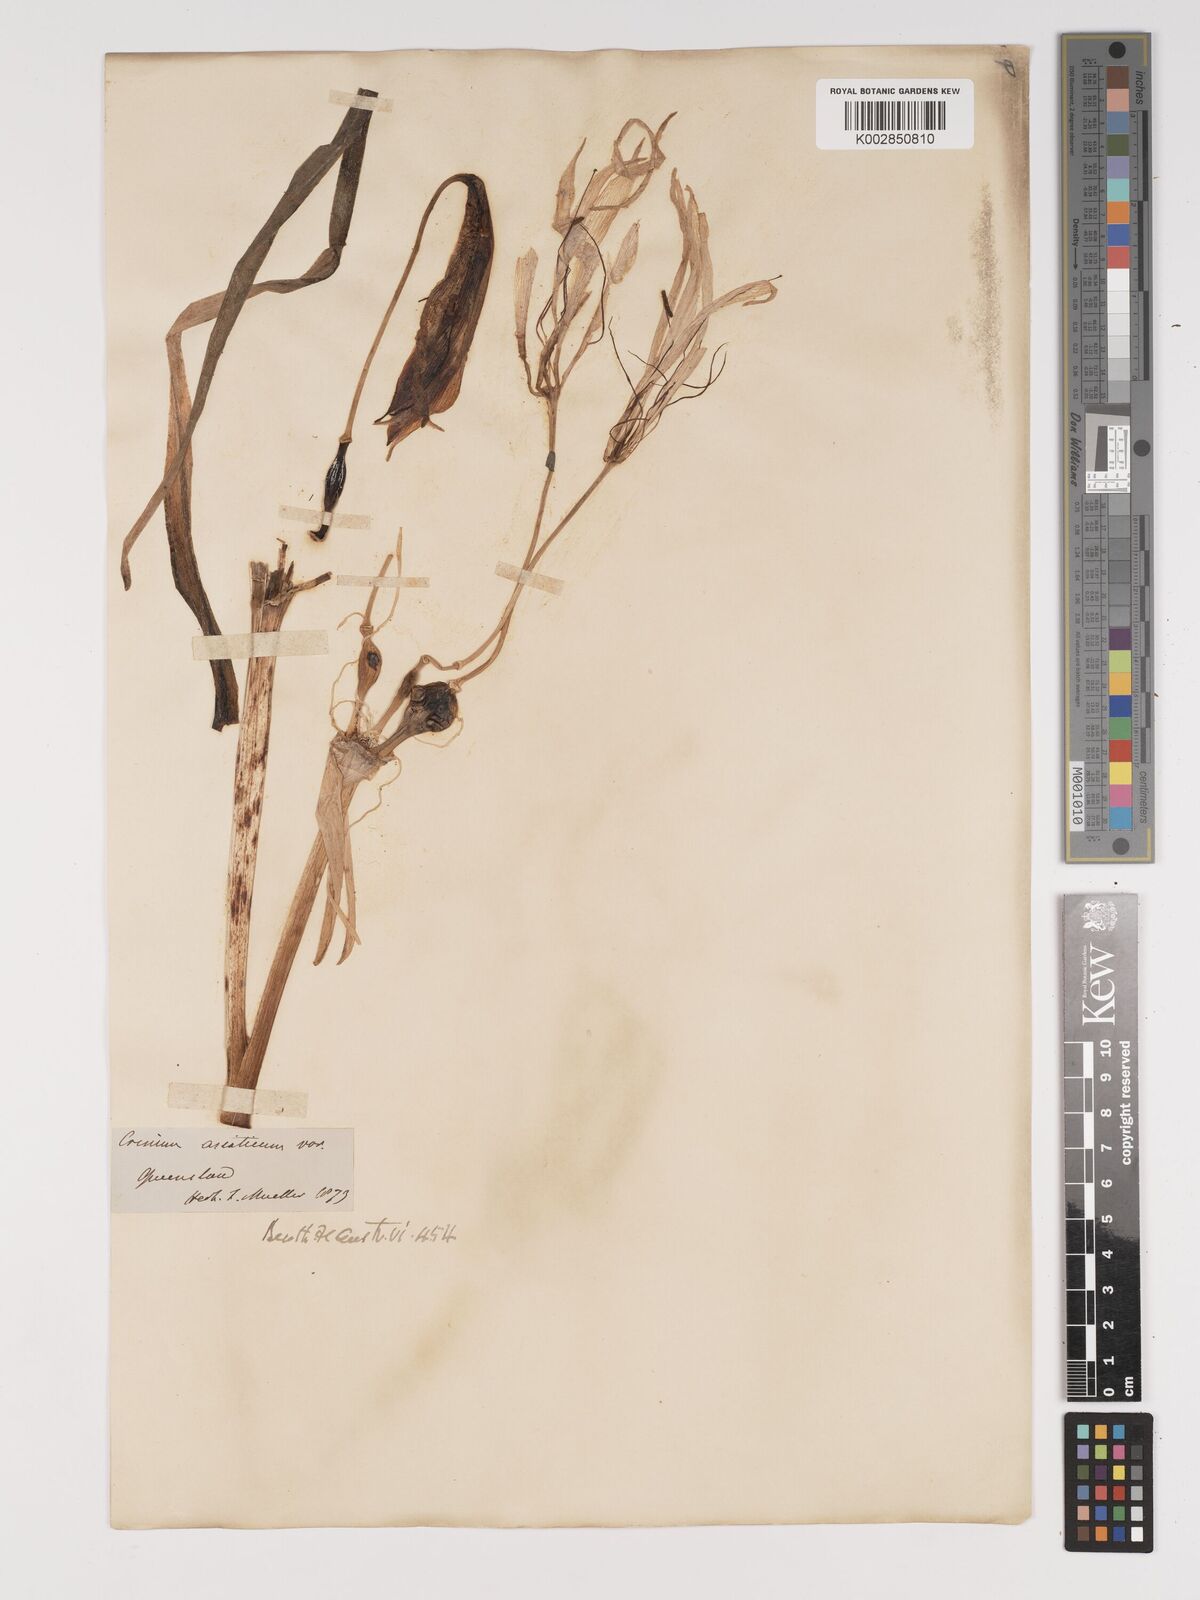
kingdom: Plantae
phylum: Tracheophyta
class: Liliopsida
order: Asparagales
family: Amaryllidaceae
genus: Crinum
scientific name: Crinum arenarium
